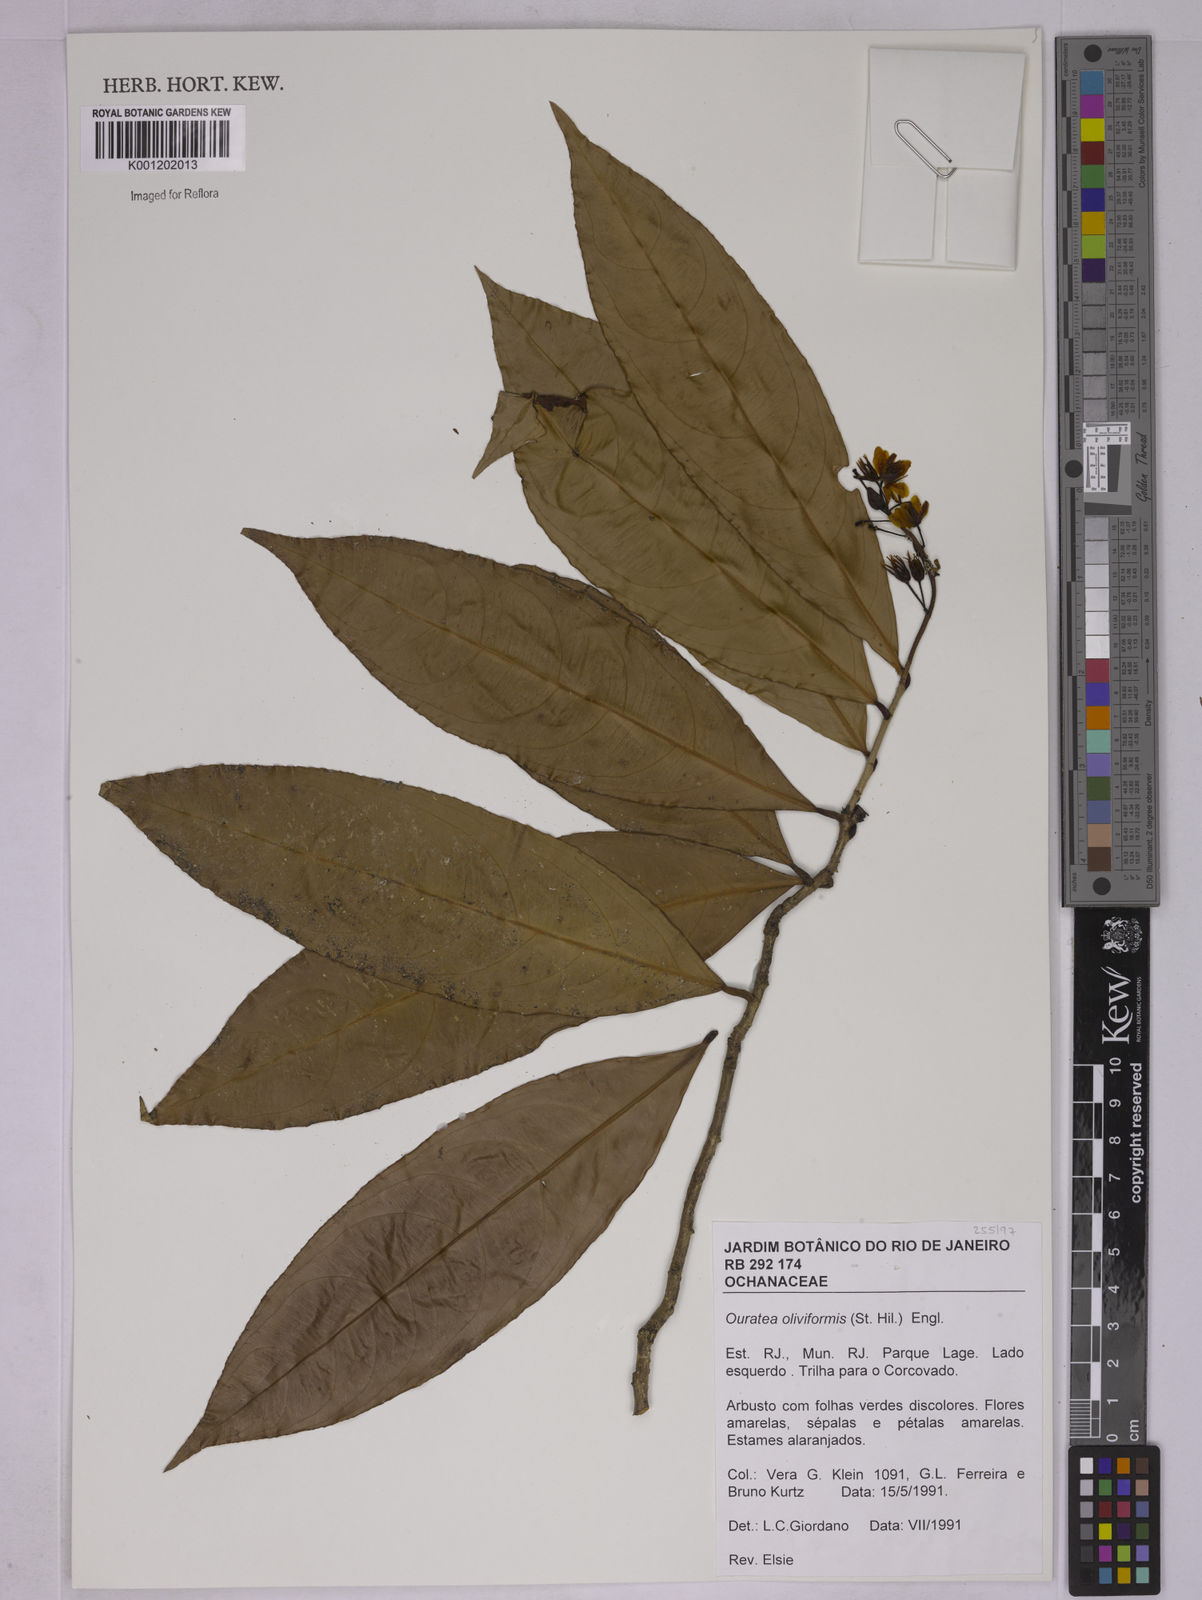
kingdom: Plantae
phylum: Tracheophyta
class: Magnoliopsida
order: Malpighiales
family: Ochnaceae
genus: Ouratea
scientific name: Ouratea oliviformis
